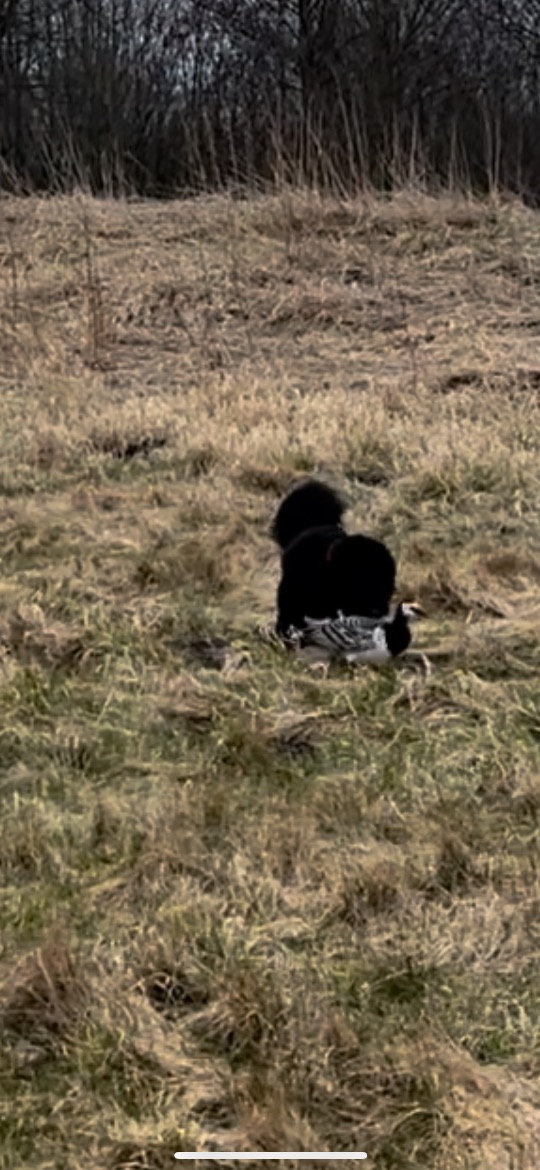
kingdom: Animalia
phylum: Chordata
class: Aves
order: Anseriformes
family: Anatidae
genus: Branta
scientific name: Branta leucopsis
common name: Bramgås
